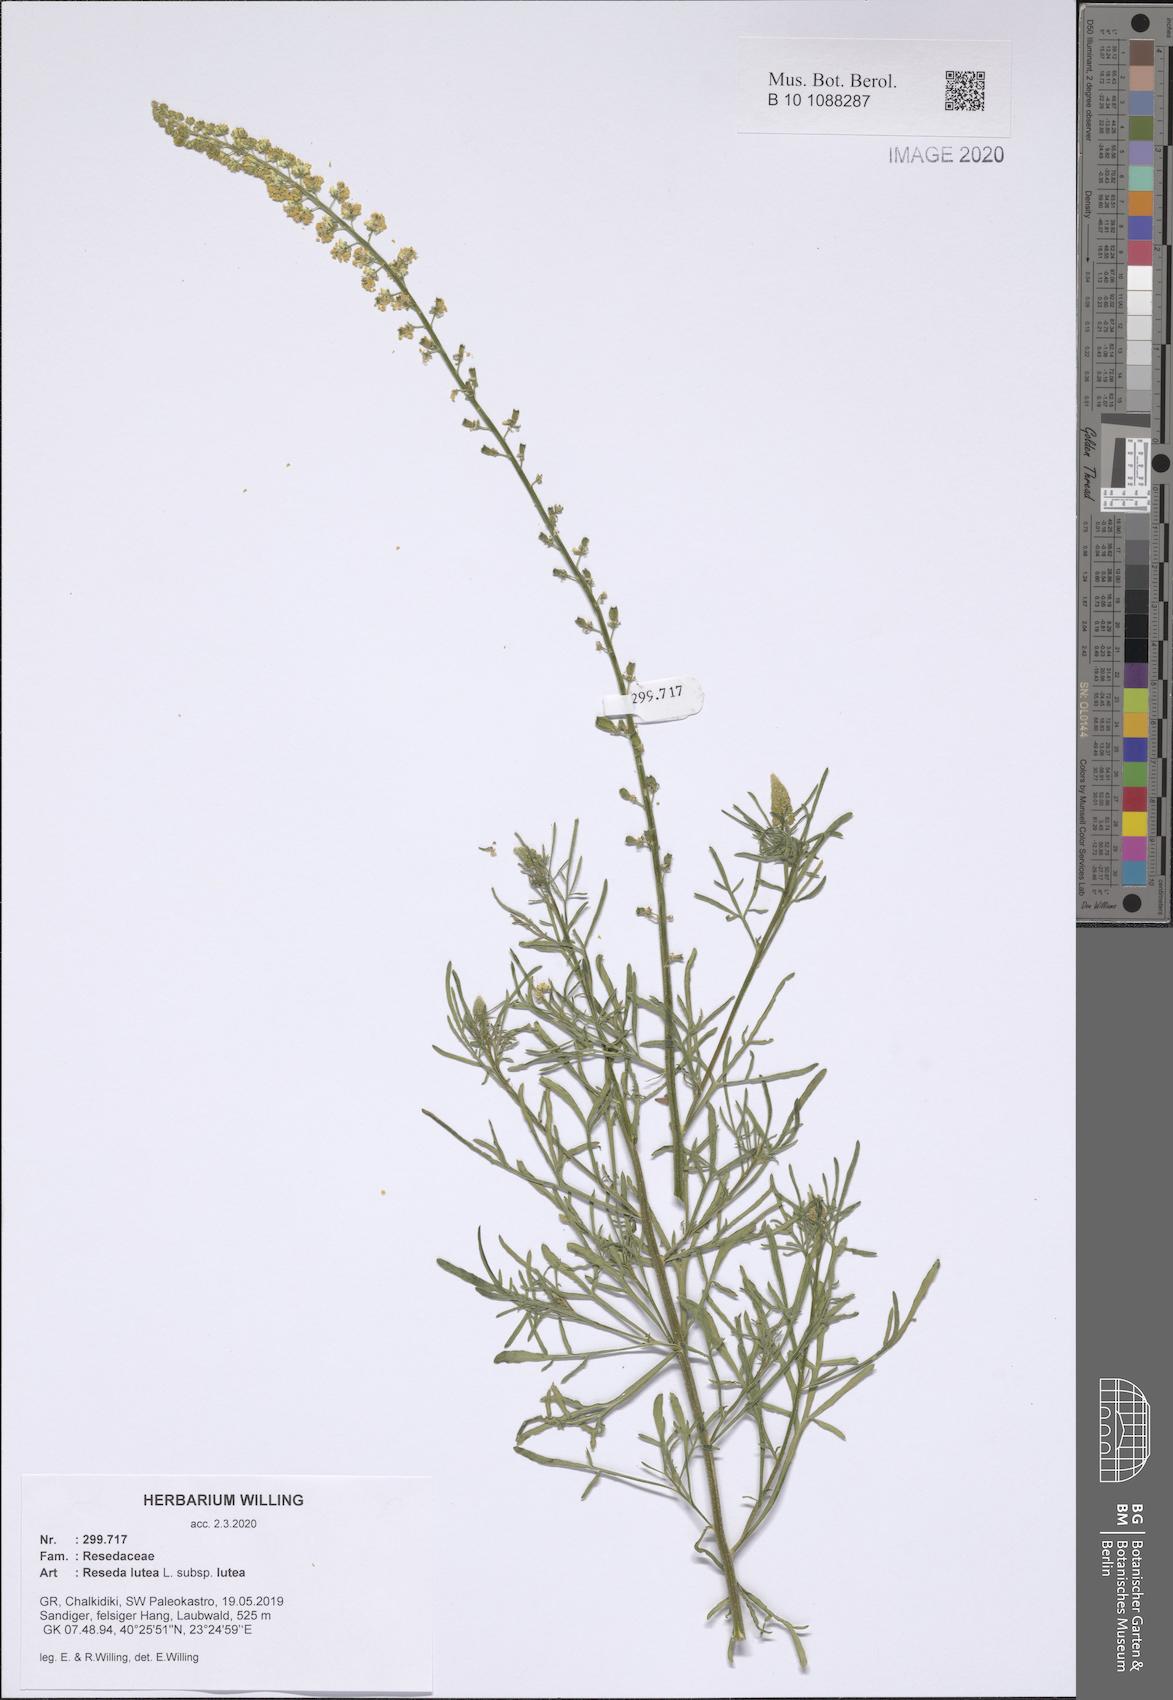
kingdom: Plantae
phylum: Tracheophyta
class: Magnoliopsida
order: Brassicales
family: Resedaceae
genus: Reseda
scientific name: Reseda lutea
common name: Wild mignonette
